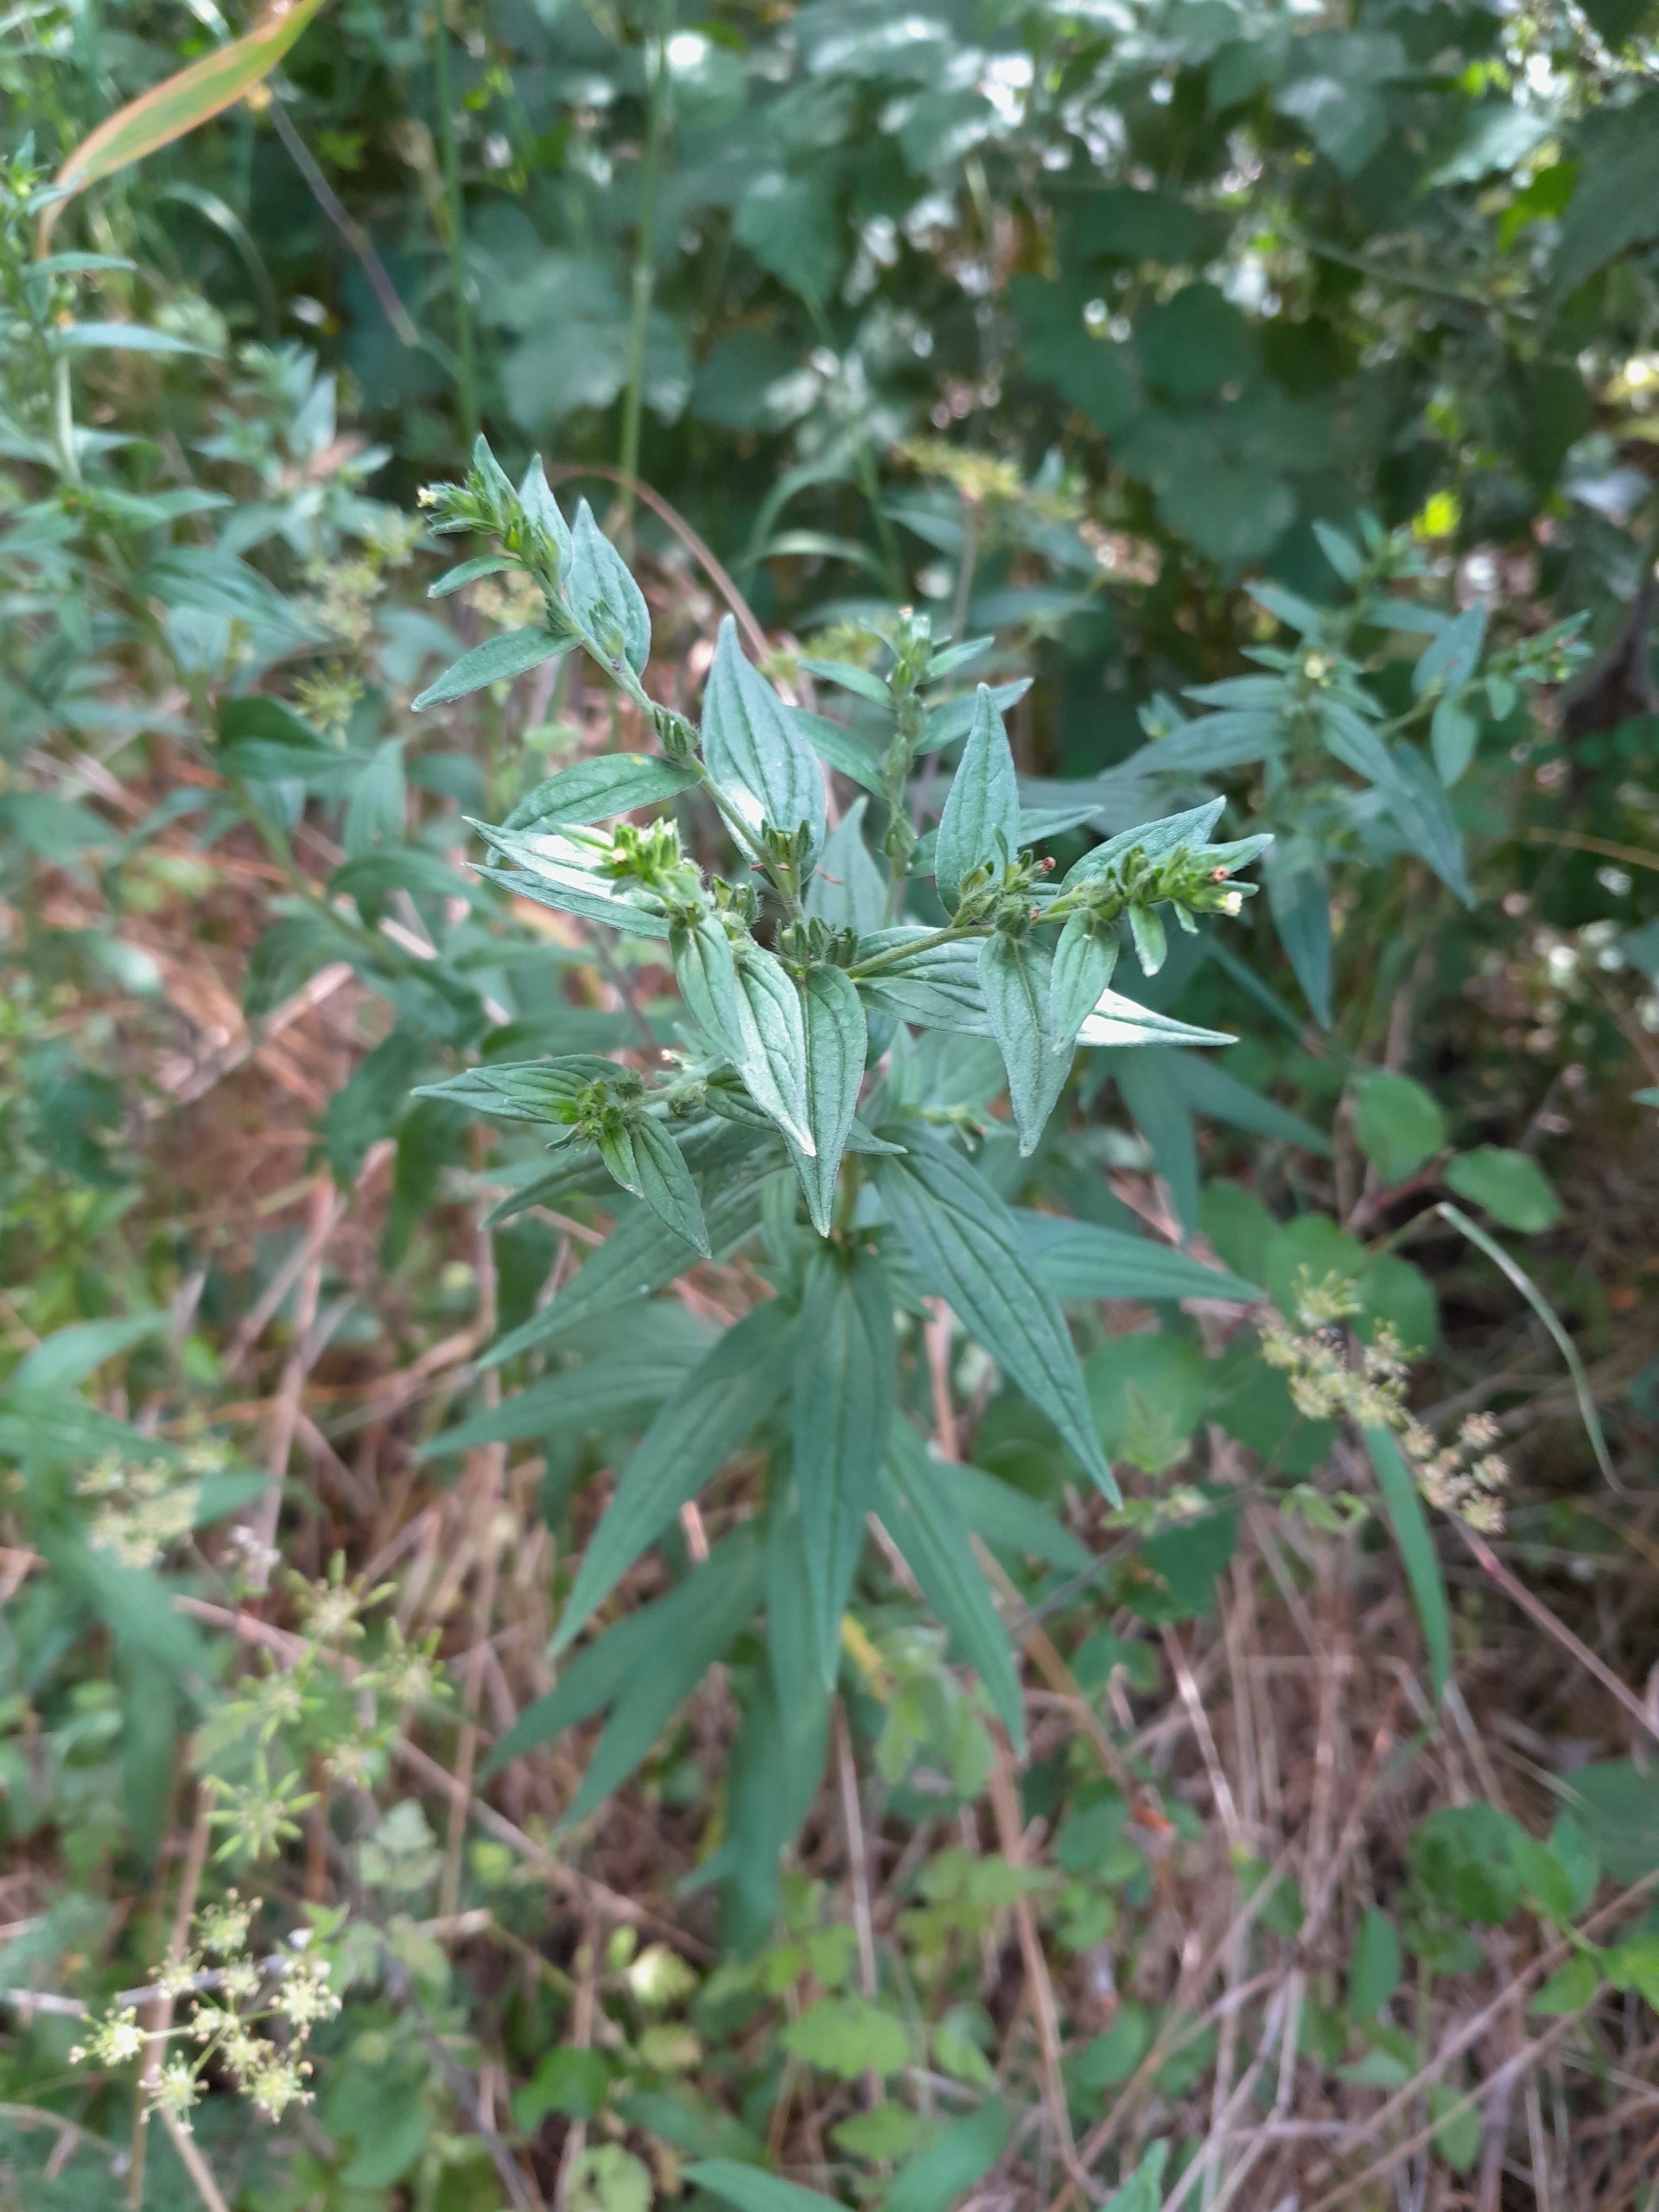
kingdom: Plantae
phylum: Tracheophyta
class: Magnoliopsida
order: Boraginales
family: Boraginaceae
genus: Lithospermum
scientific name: Lithospermum officinale
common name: Læge-stenfrø
